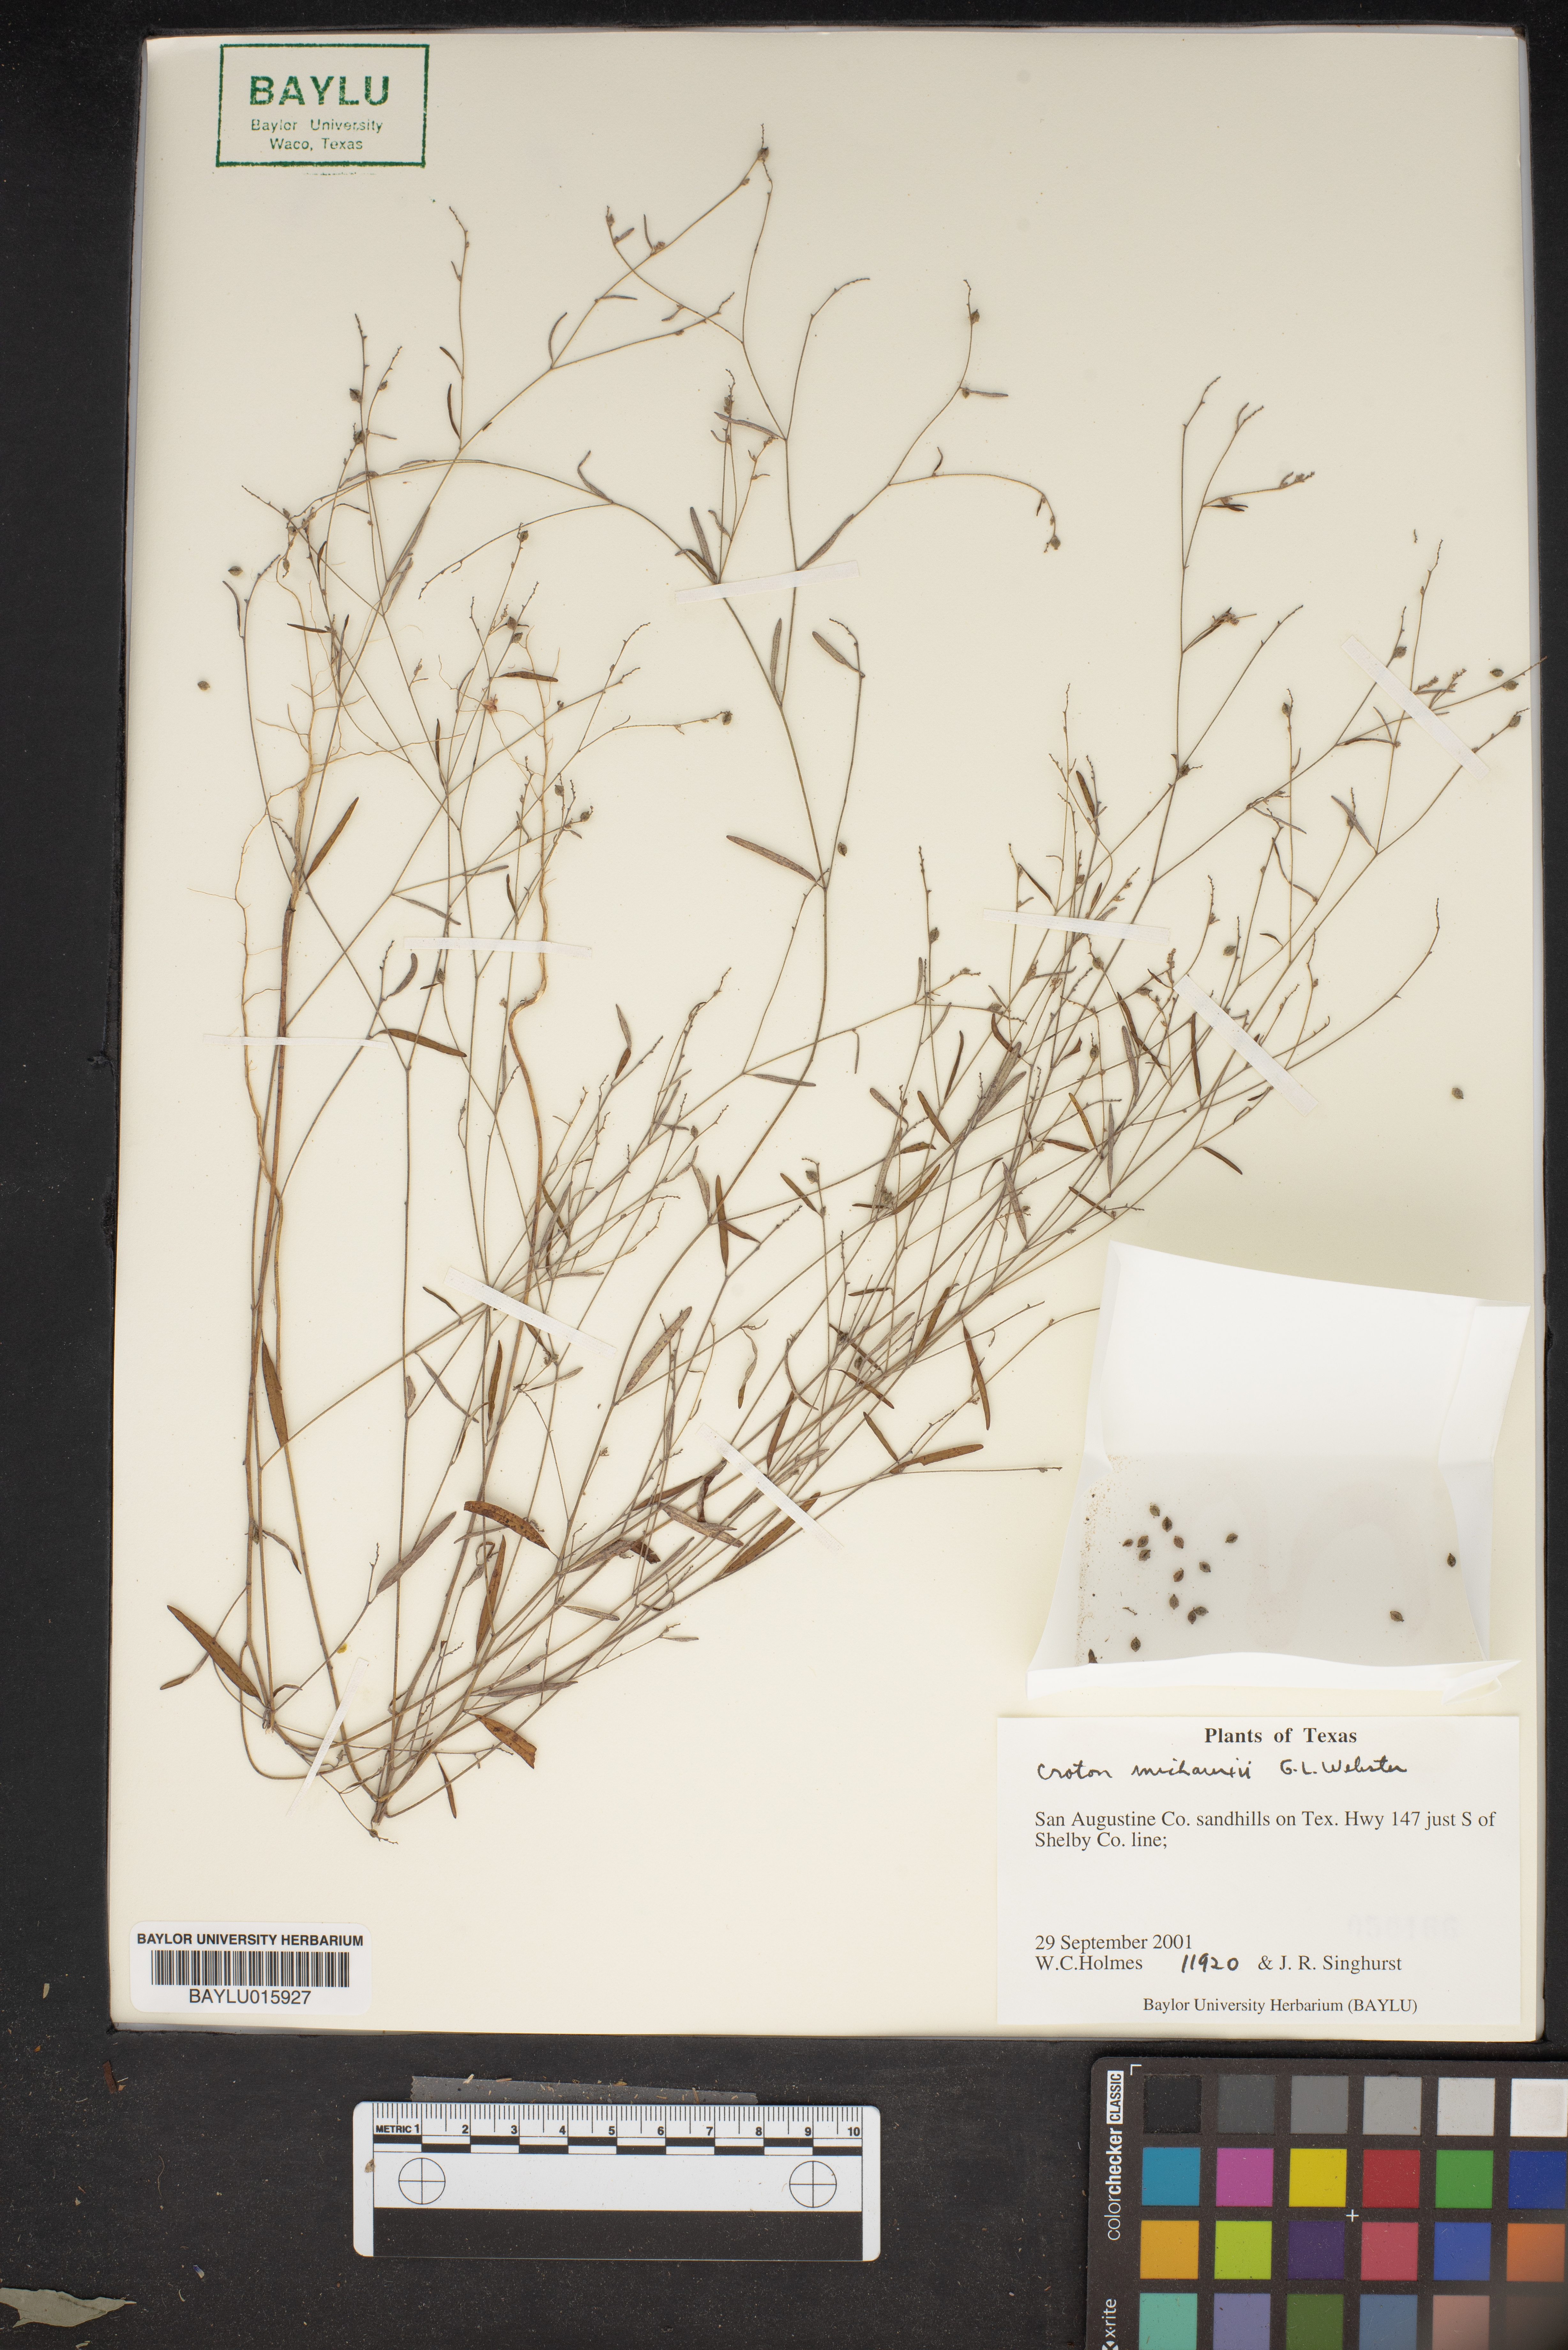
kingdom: Plantae
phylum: Tracheophyta
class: Magnoliopsida
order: Malpighiales
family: Euphorbiaceae
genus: Croton
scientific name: Croton michauxii
